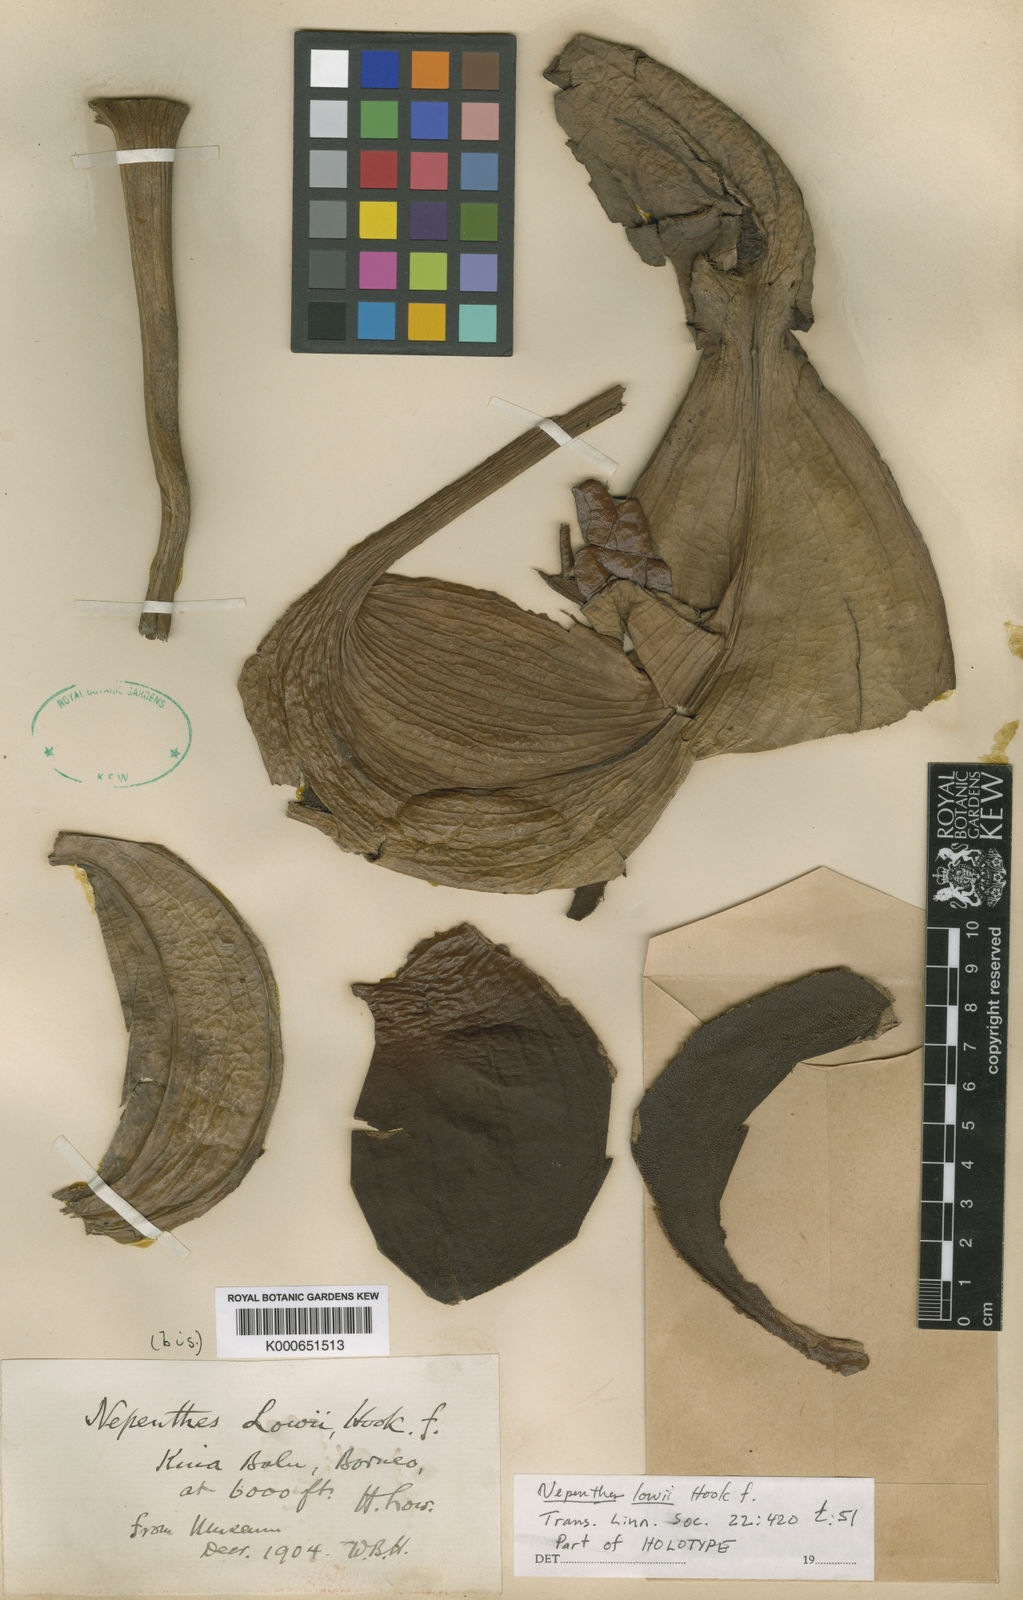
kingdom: Plantae
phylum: Tracheophyta
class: Magnoliopsida
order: Caryophyllales
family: Nepenthaceae
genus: Nepenthes
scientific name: Nepenthes lowii
